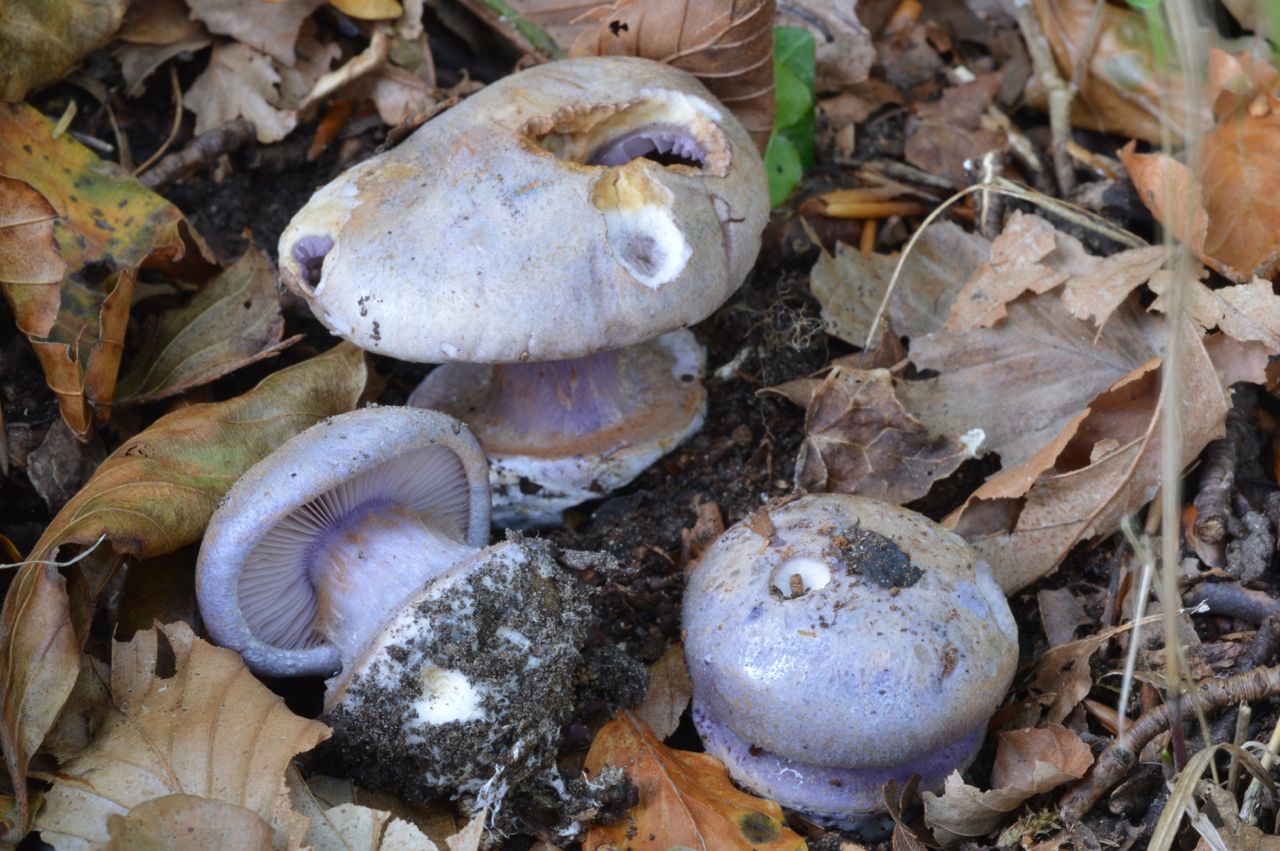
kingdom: Fungi
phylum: Basidiomycota
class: Agaricomycetes
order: Agaricales
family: Cortinariaceae
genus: Calonarius
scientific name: Calonarius violaceipes
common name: stedmoder-slørhat
